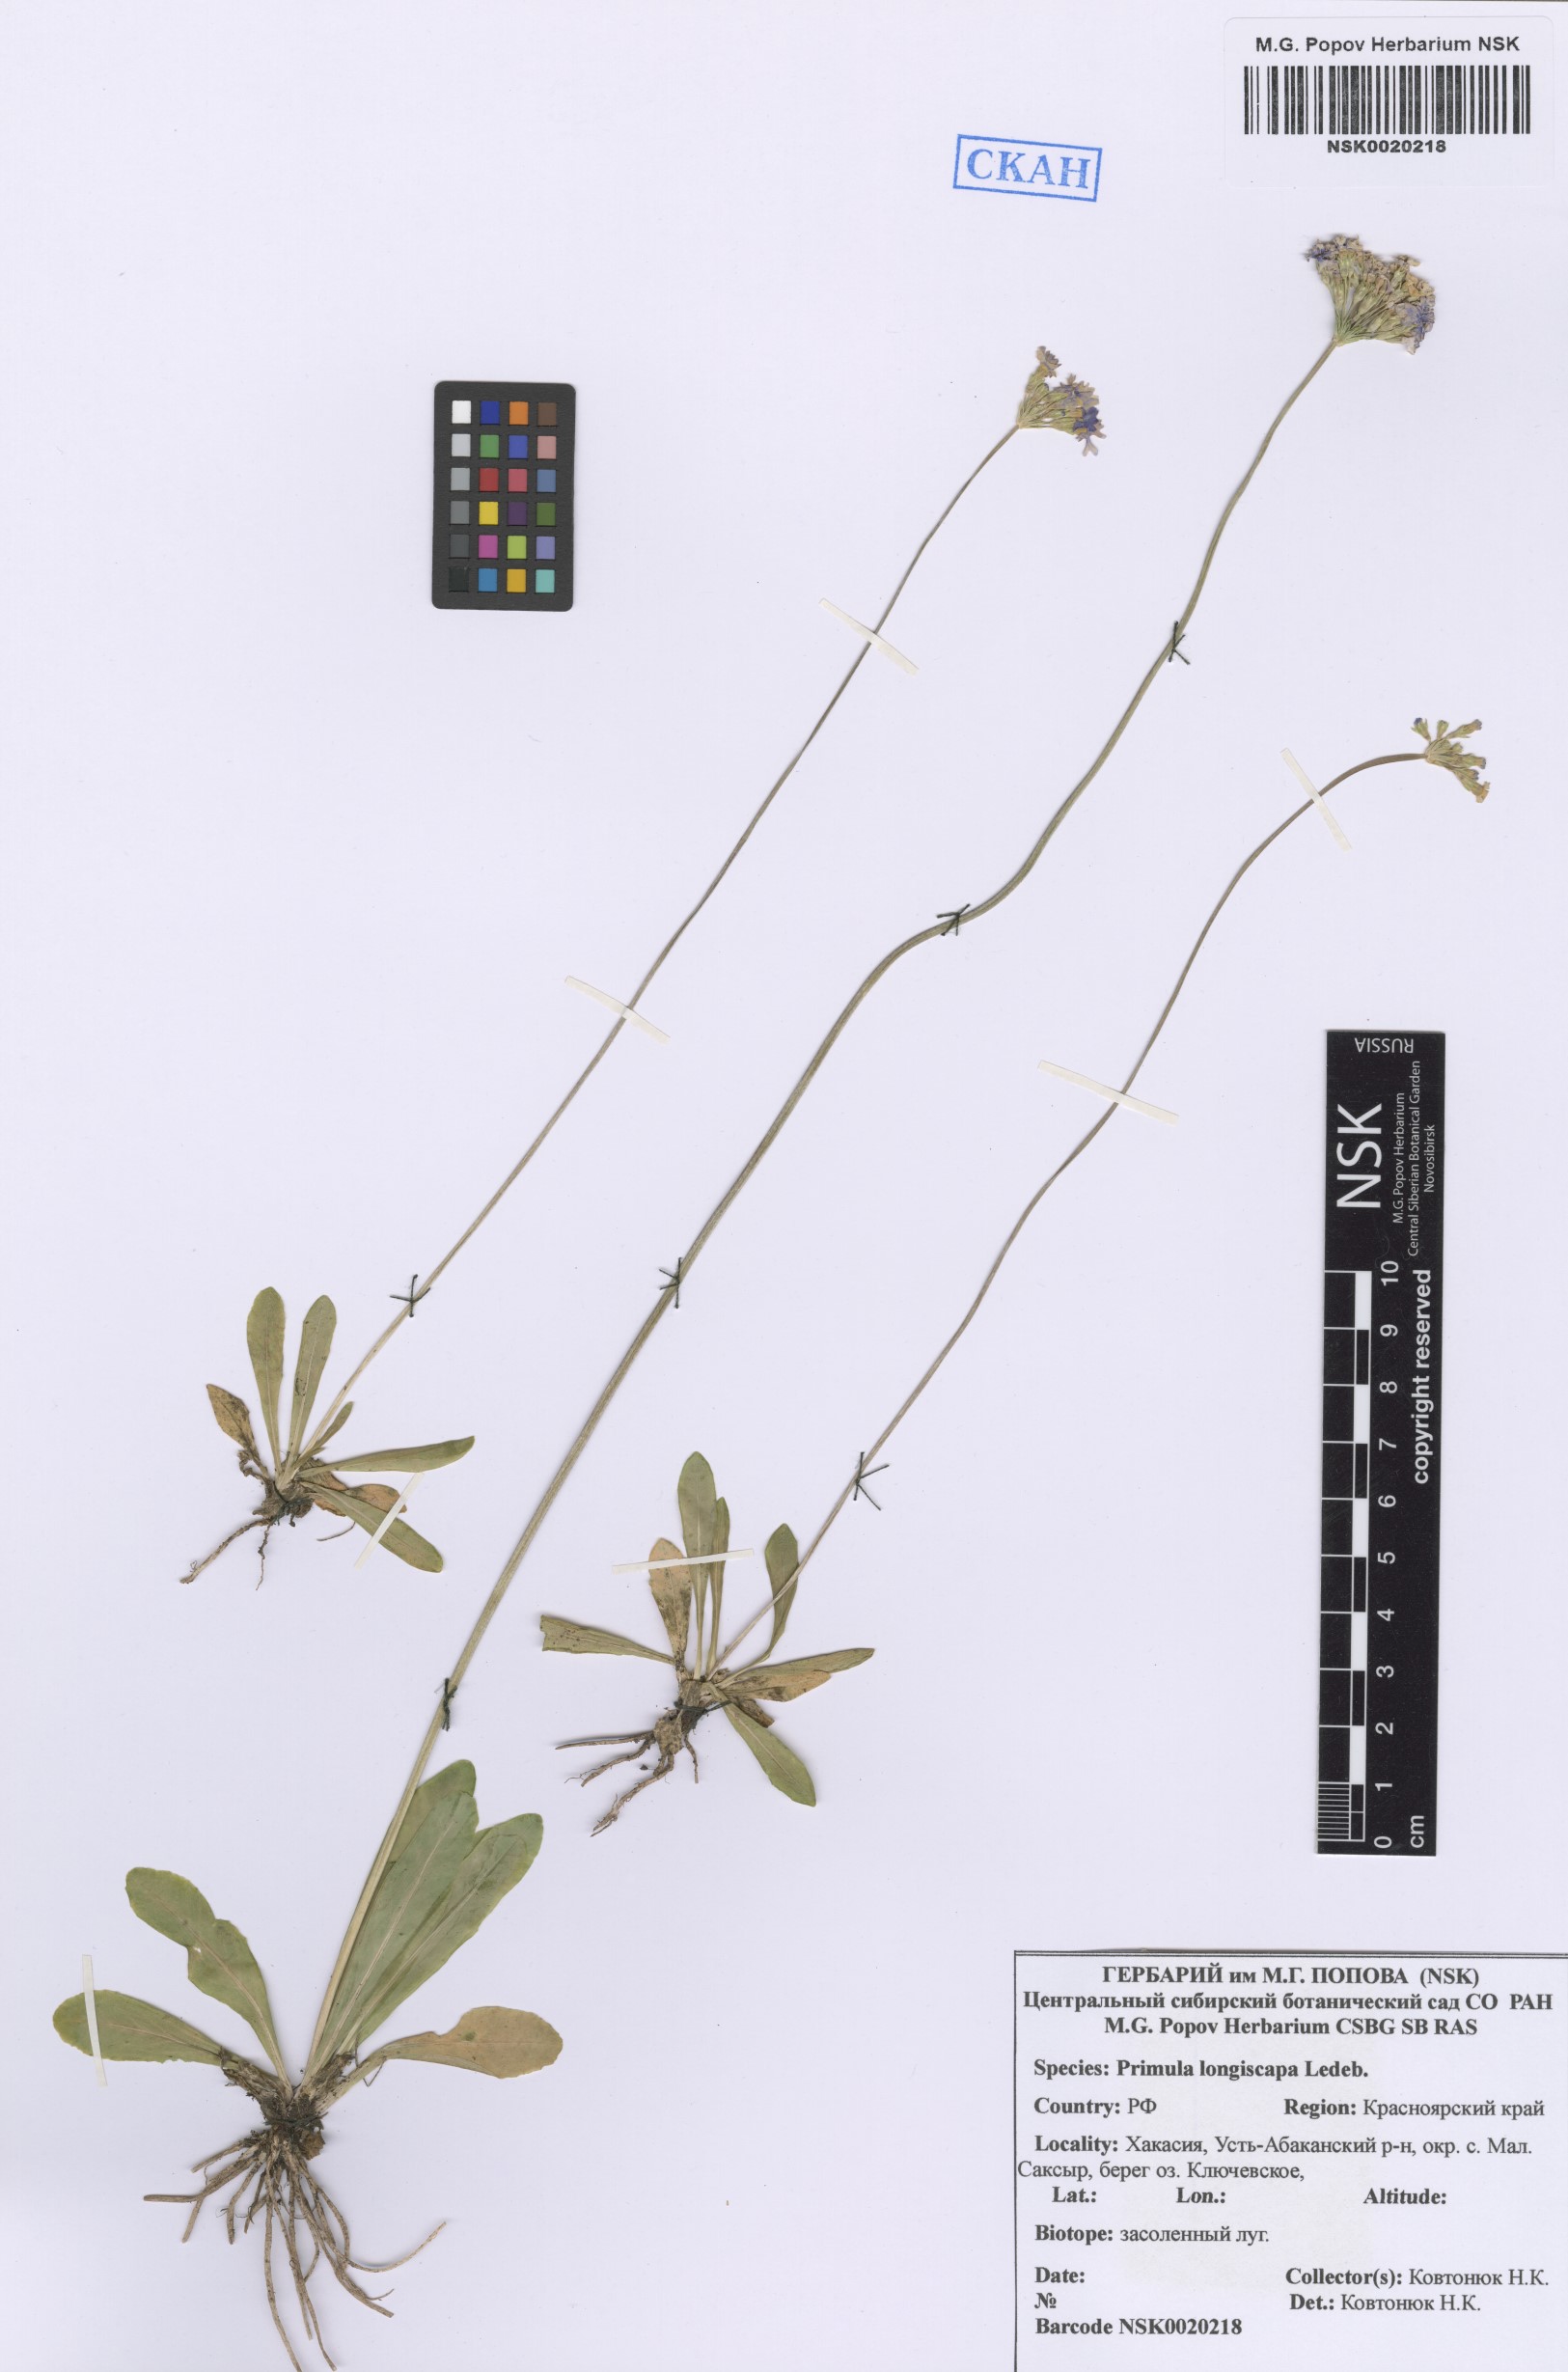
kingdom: Plantae
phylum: Tracheophyta
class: Magnoliopsida
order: Ericales
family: Primulaceae
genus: Primula
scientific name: Primula longiscapa
